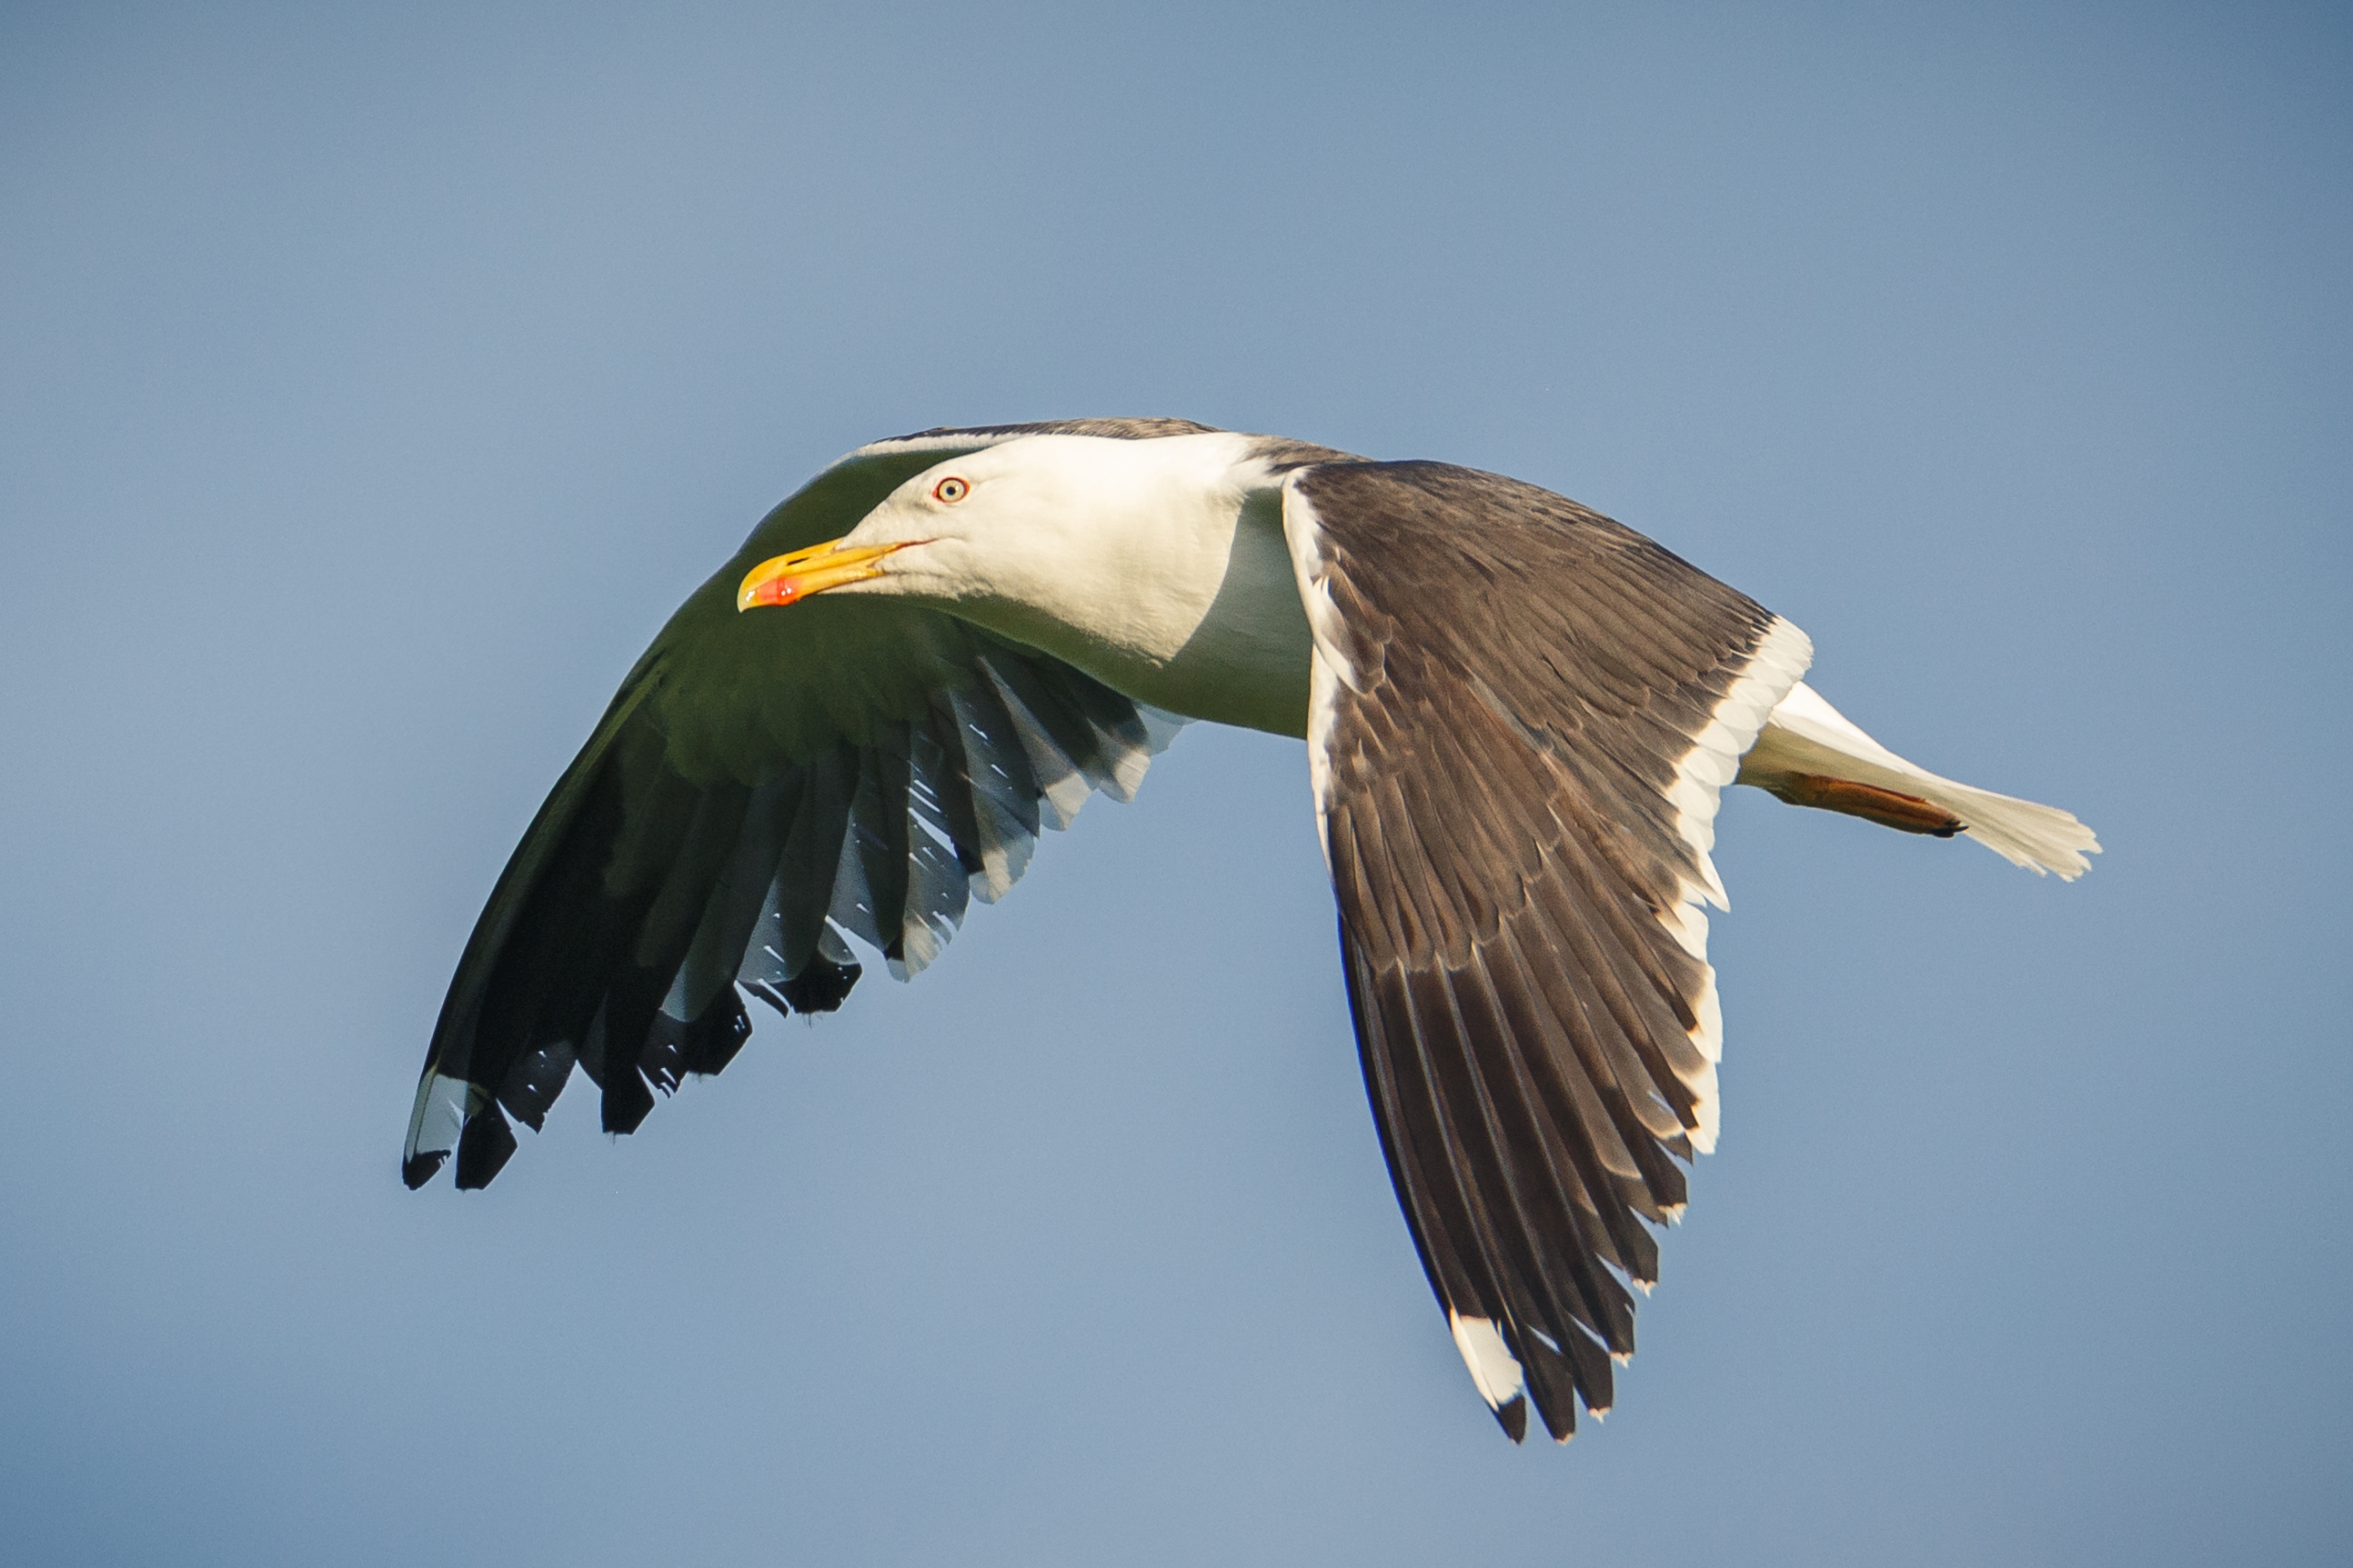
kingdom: Animalia
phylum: Chordata
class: Aves
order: Charadriiformes
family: Laridae
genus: Larus
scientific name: Larus fuscus
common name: Sildemåge
